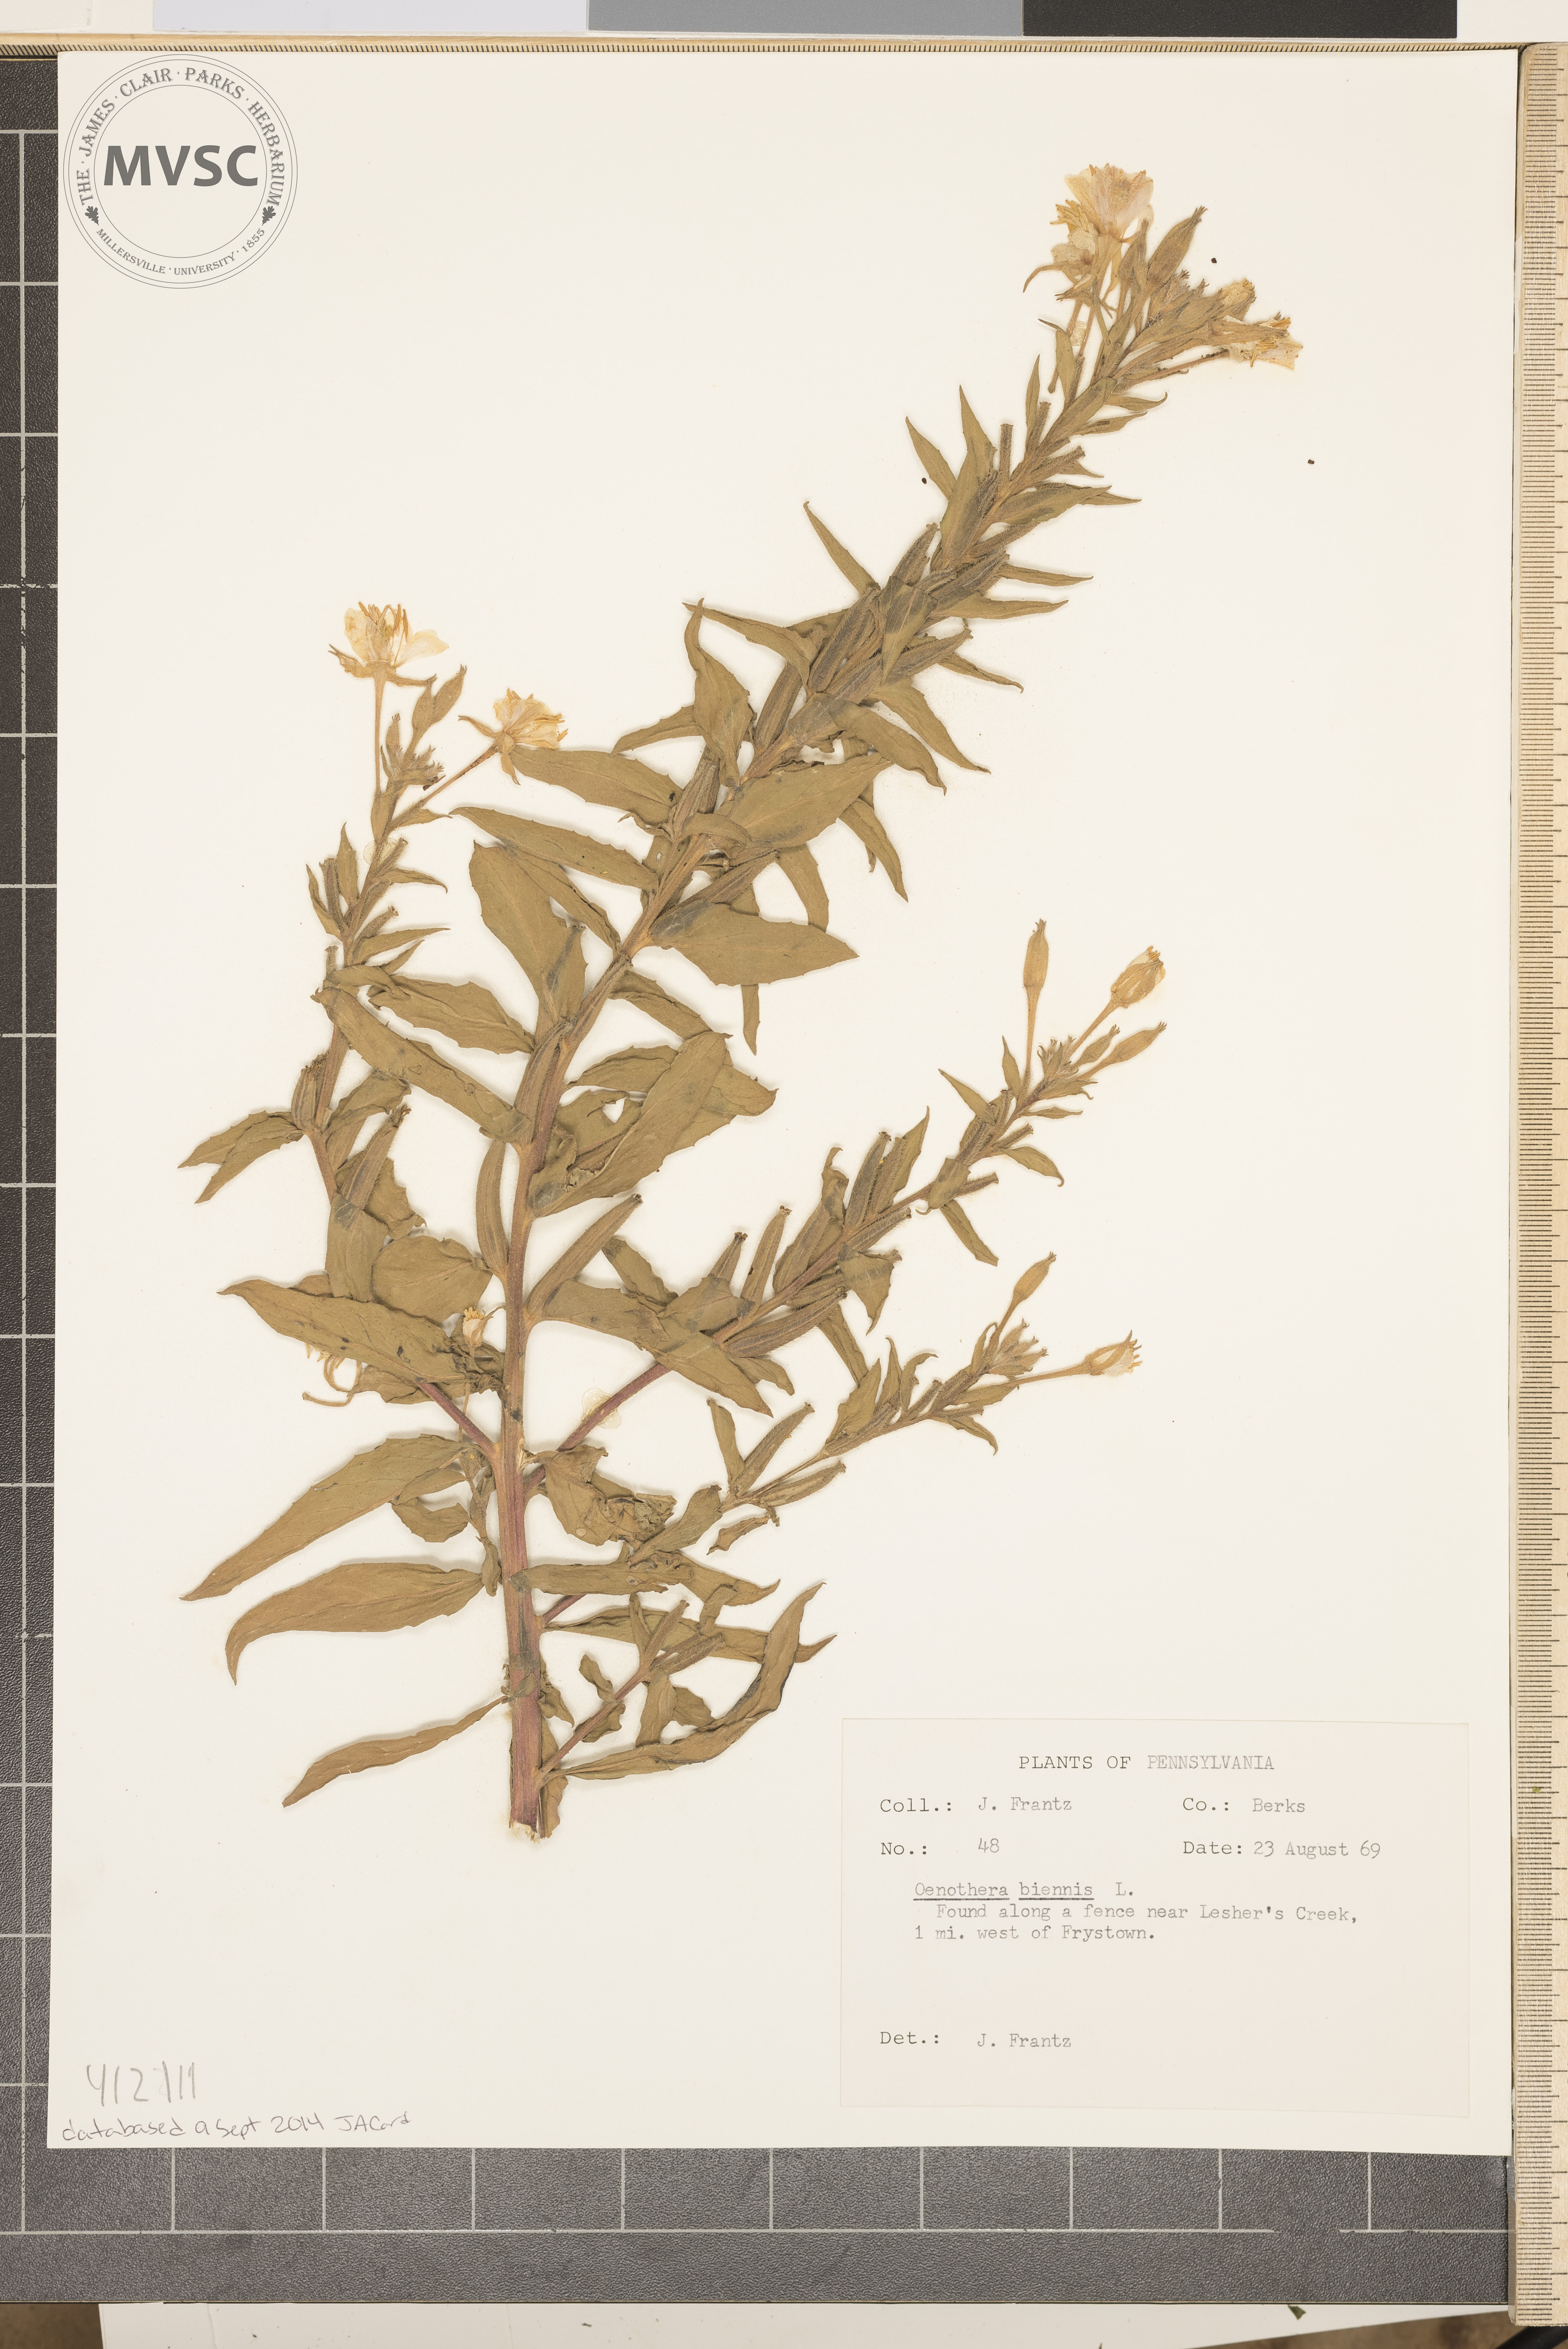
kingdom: Plantae
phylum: Tracheophyta
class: Magnoliopsida
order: Myrtales
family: Onagraceae
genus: Oenothera
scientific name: Oenothera biennis
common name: Common evening-primrose
